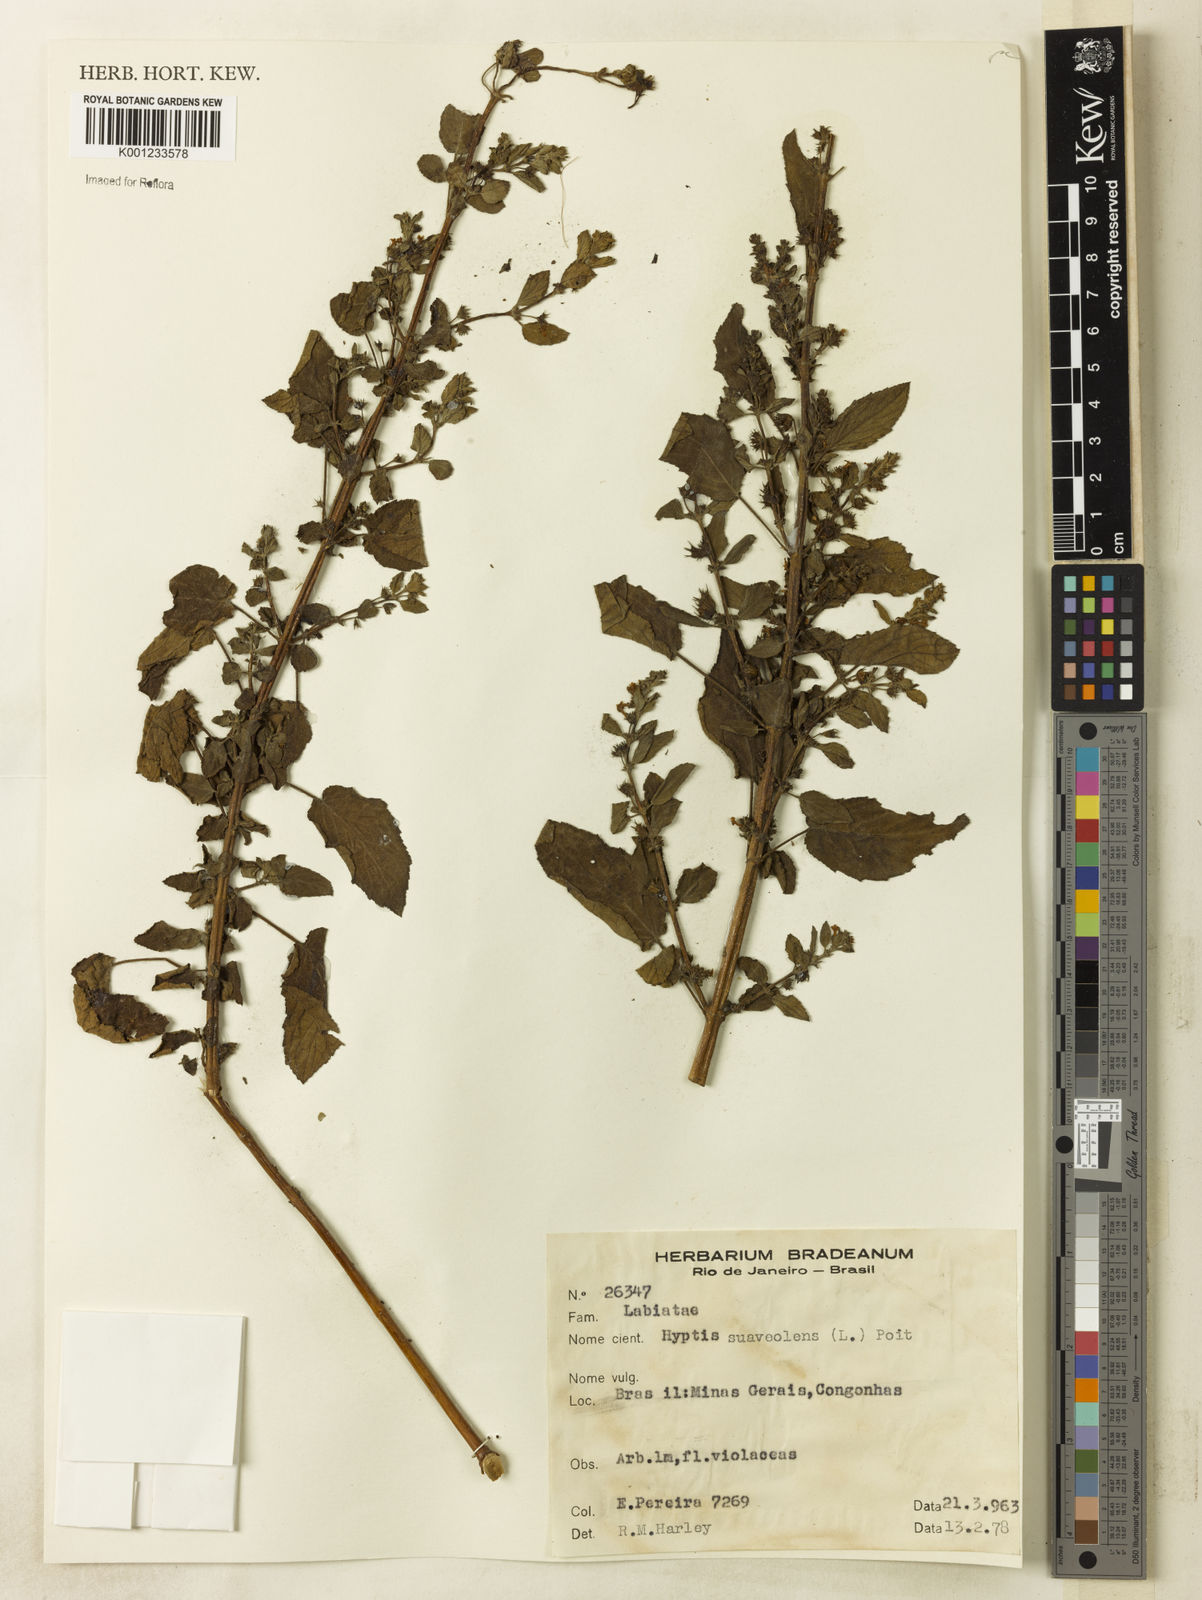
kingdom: Plantae
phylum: Tracheophyta
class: Magnoliopsida
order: Lamiales
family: Lamiaceae
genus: Mesosphaerum
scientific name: Mesosphaerum suaveolens
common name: Pignut
